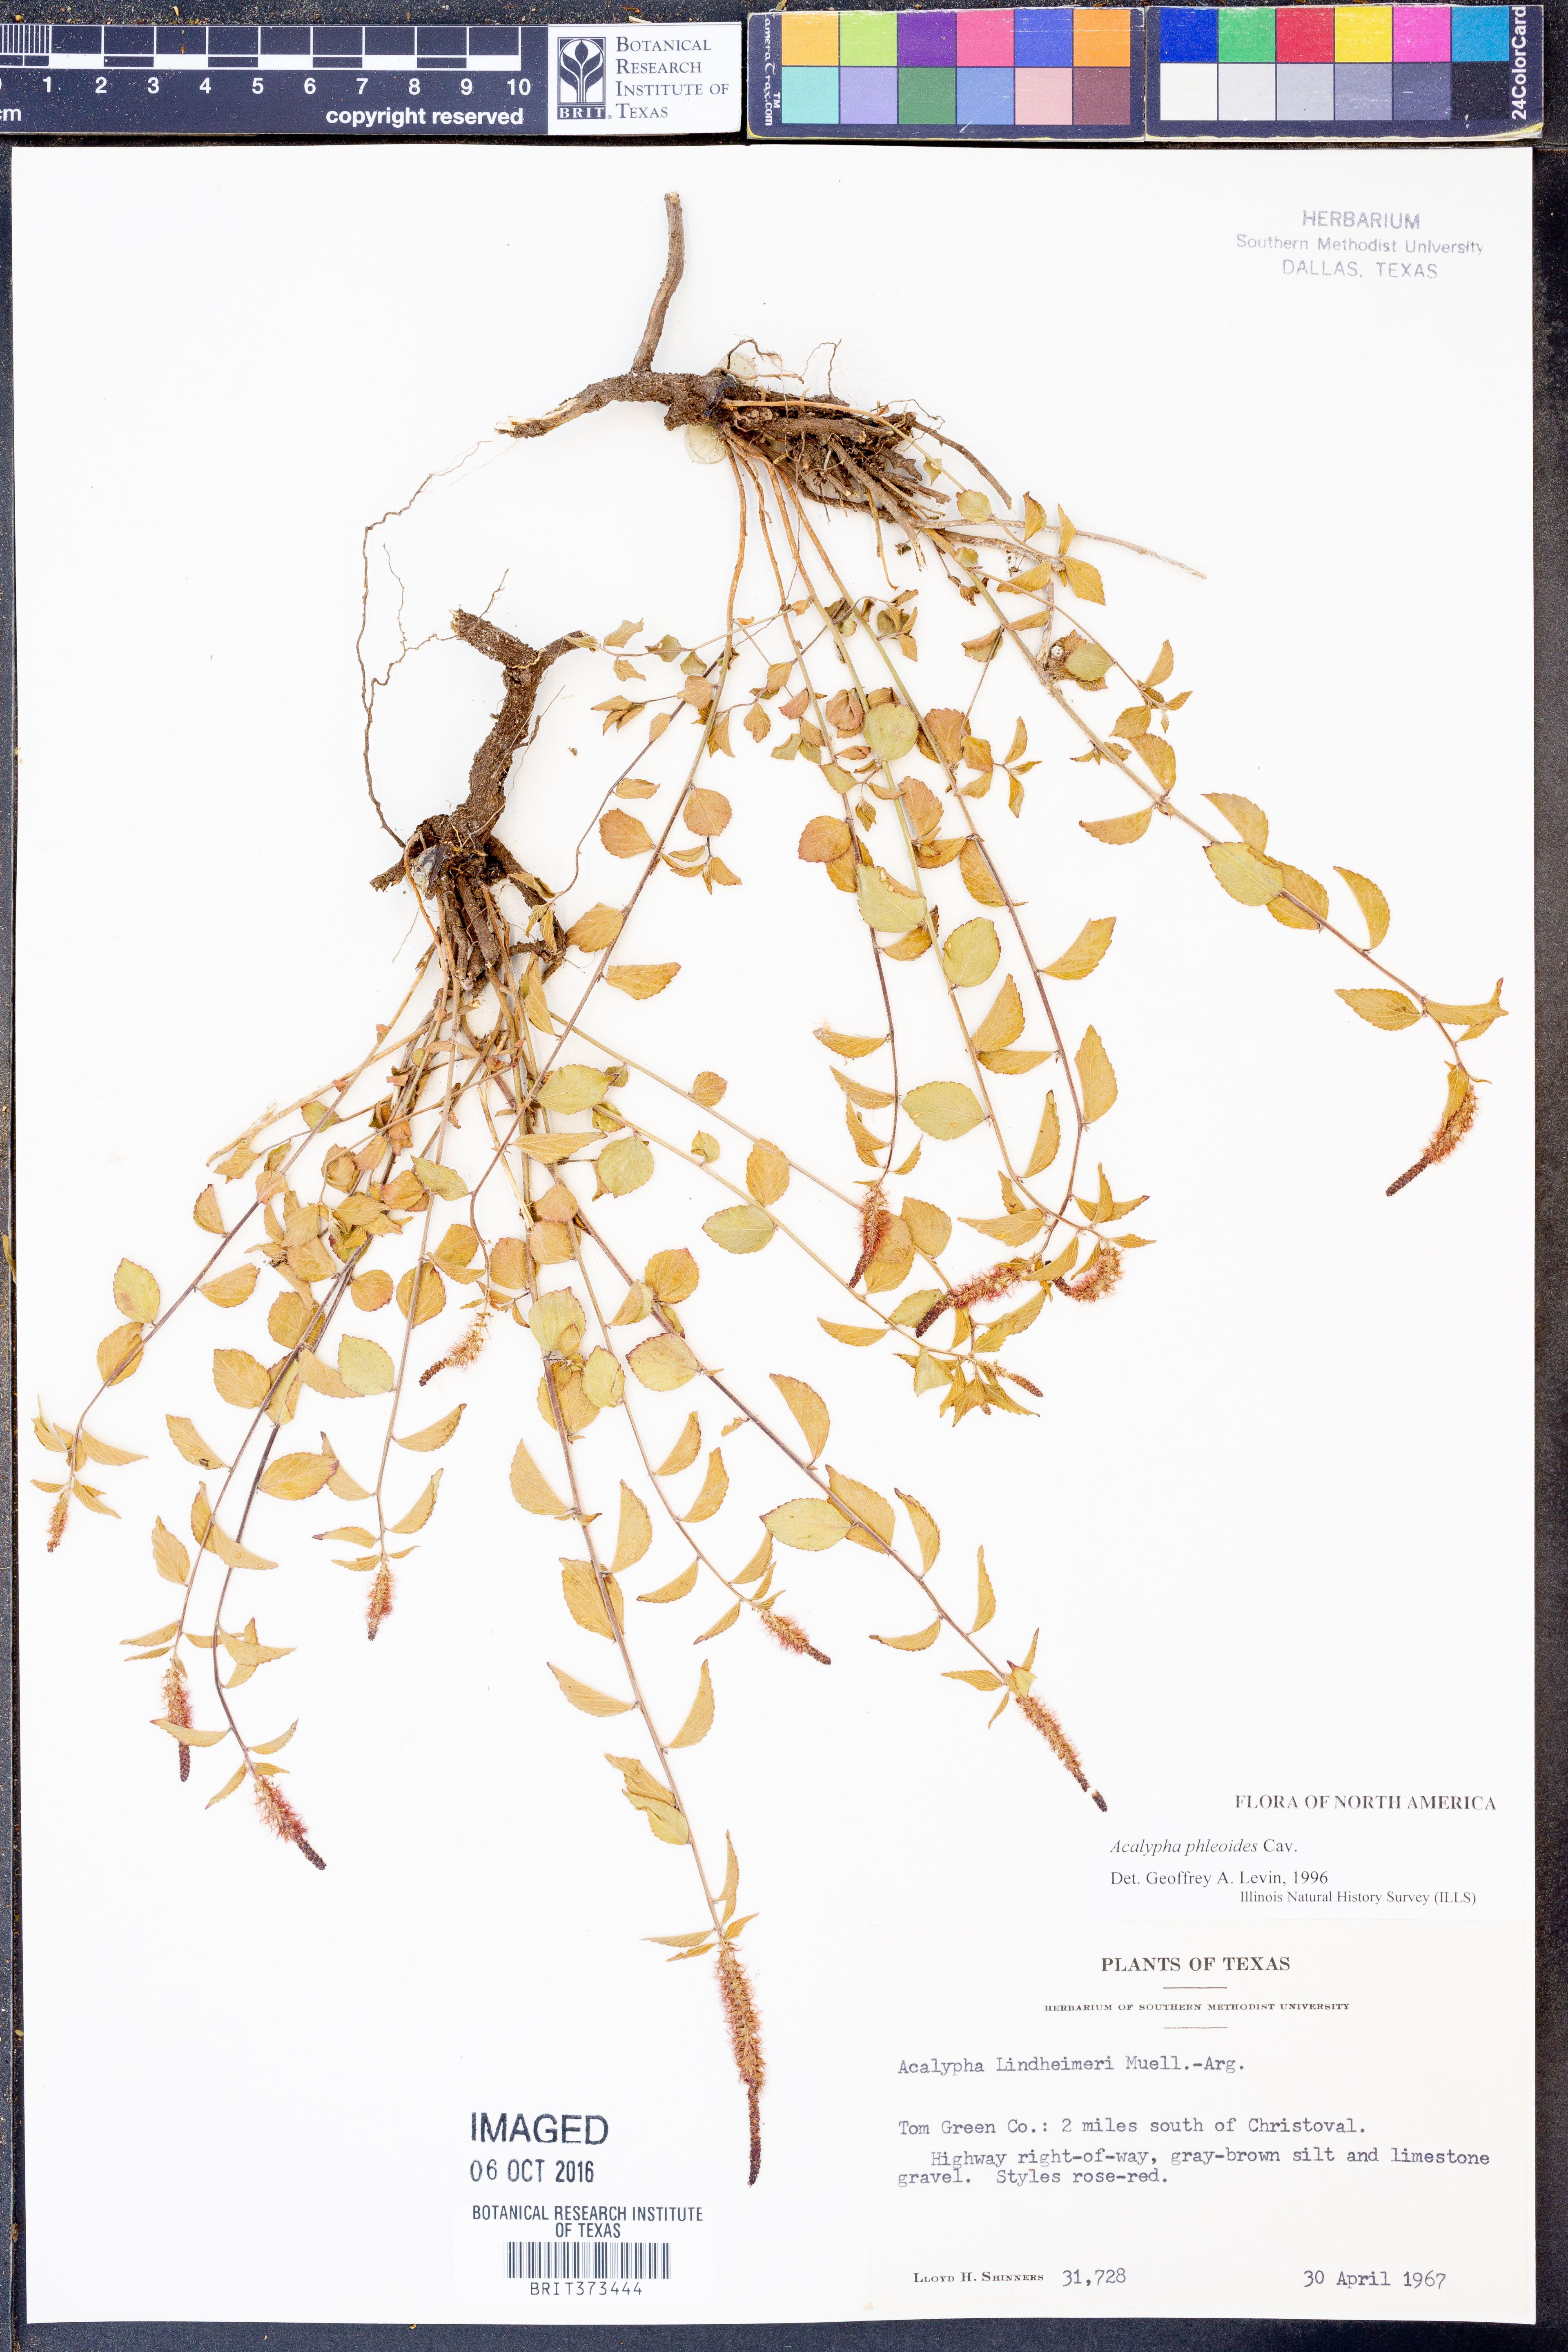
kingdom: Plantae
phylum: Tracheophyta
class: Magnoliopsida
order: Malpighiales
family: Euphorbiaceae
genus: Acalypha
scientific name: Acalypha phleoides
